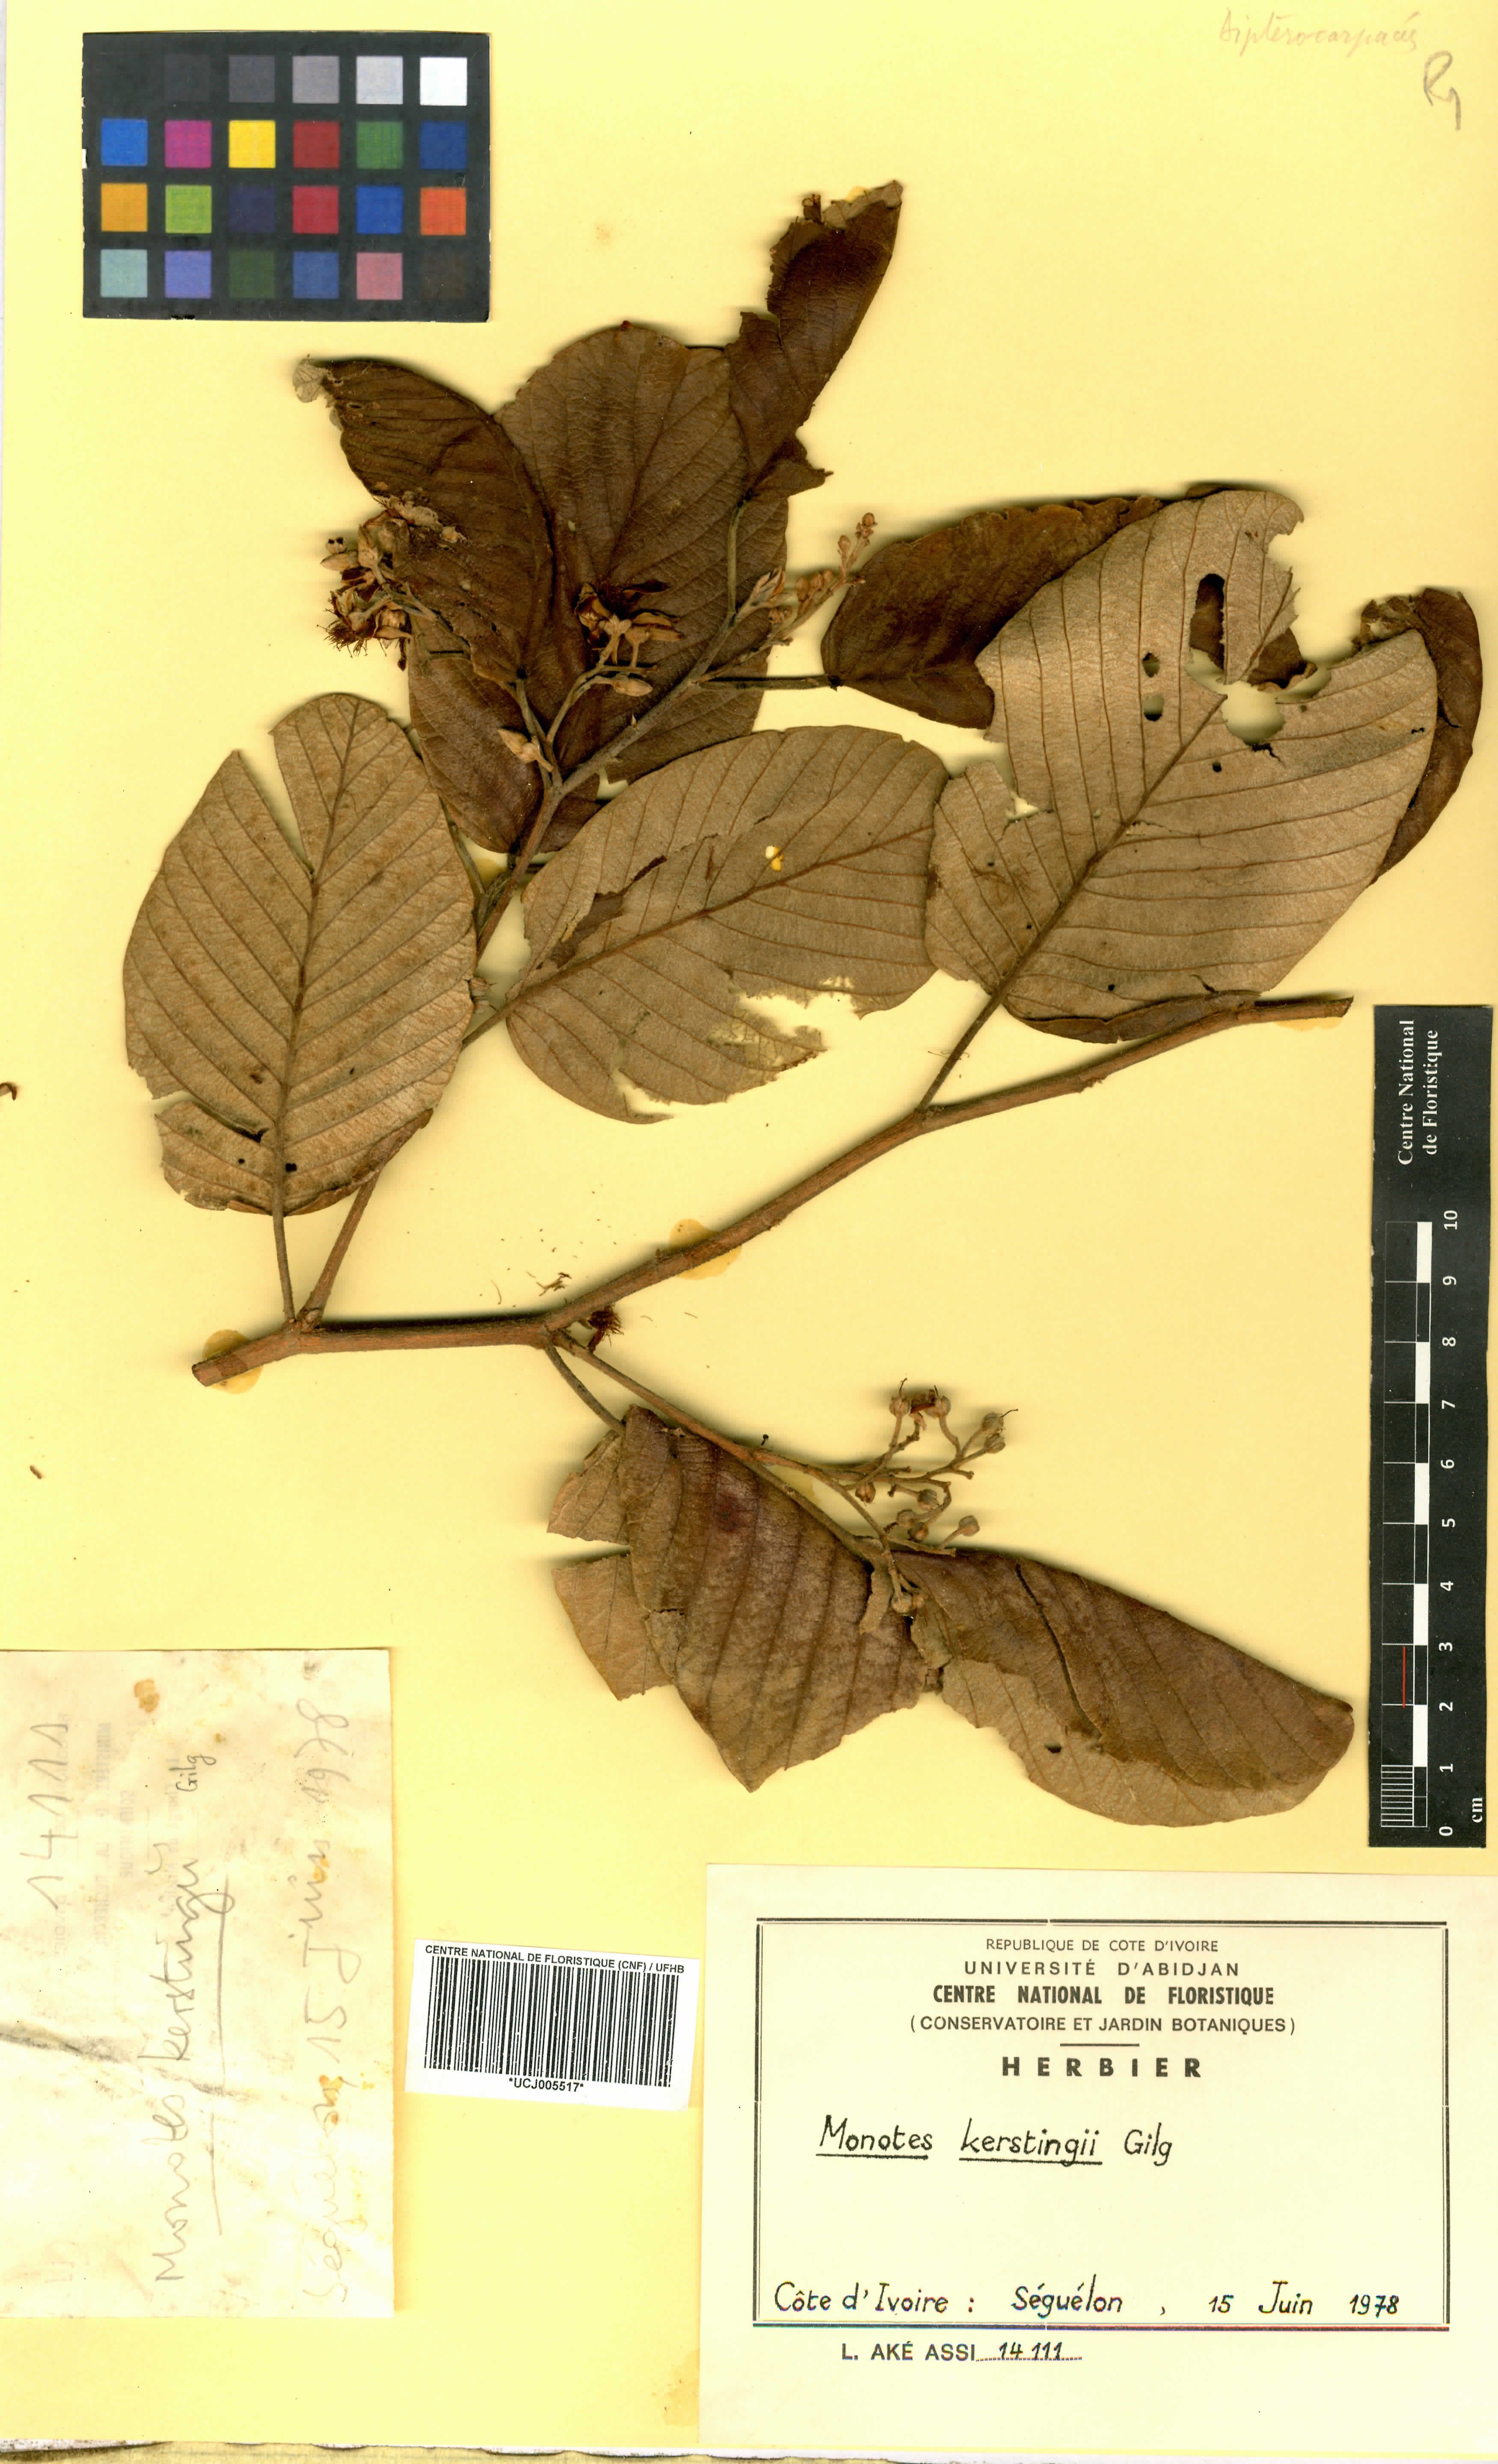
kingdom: Plantae
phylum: Tracheophyta
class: Magnoliopsida
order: Malvales
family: Dipterocarpaceae
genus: Monotes
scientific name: Monotes kerstingii
